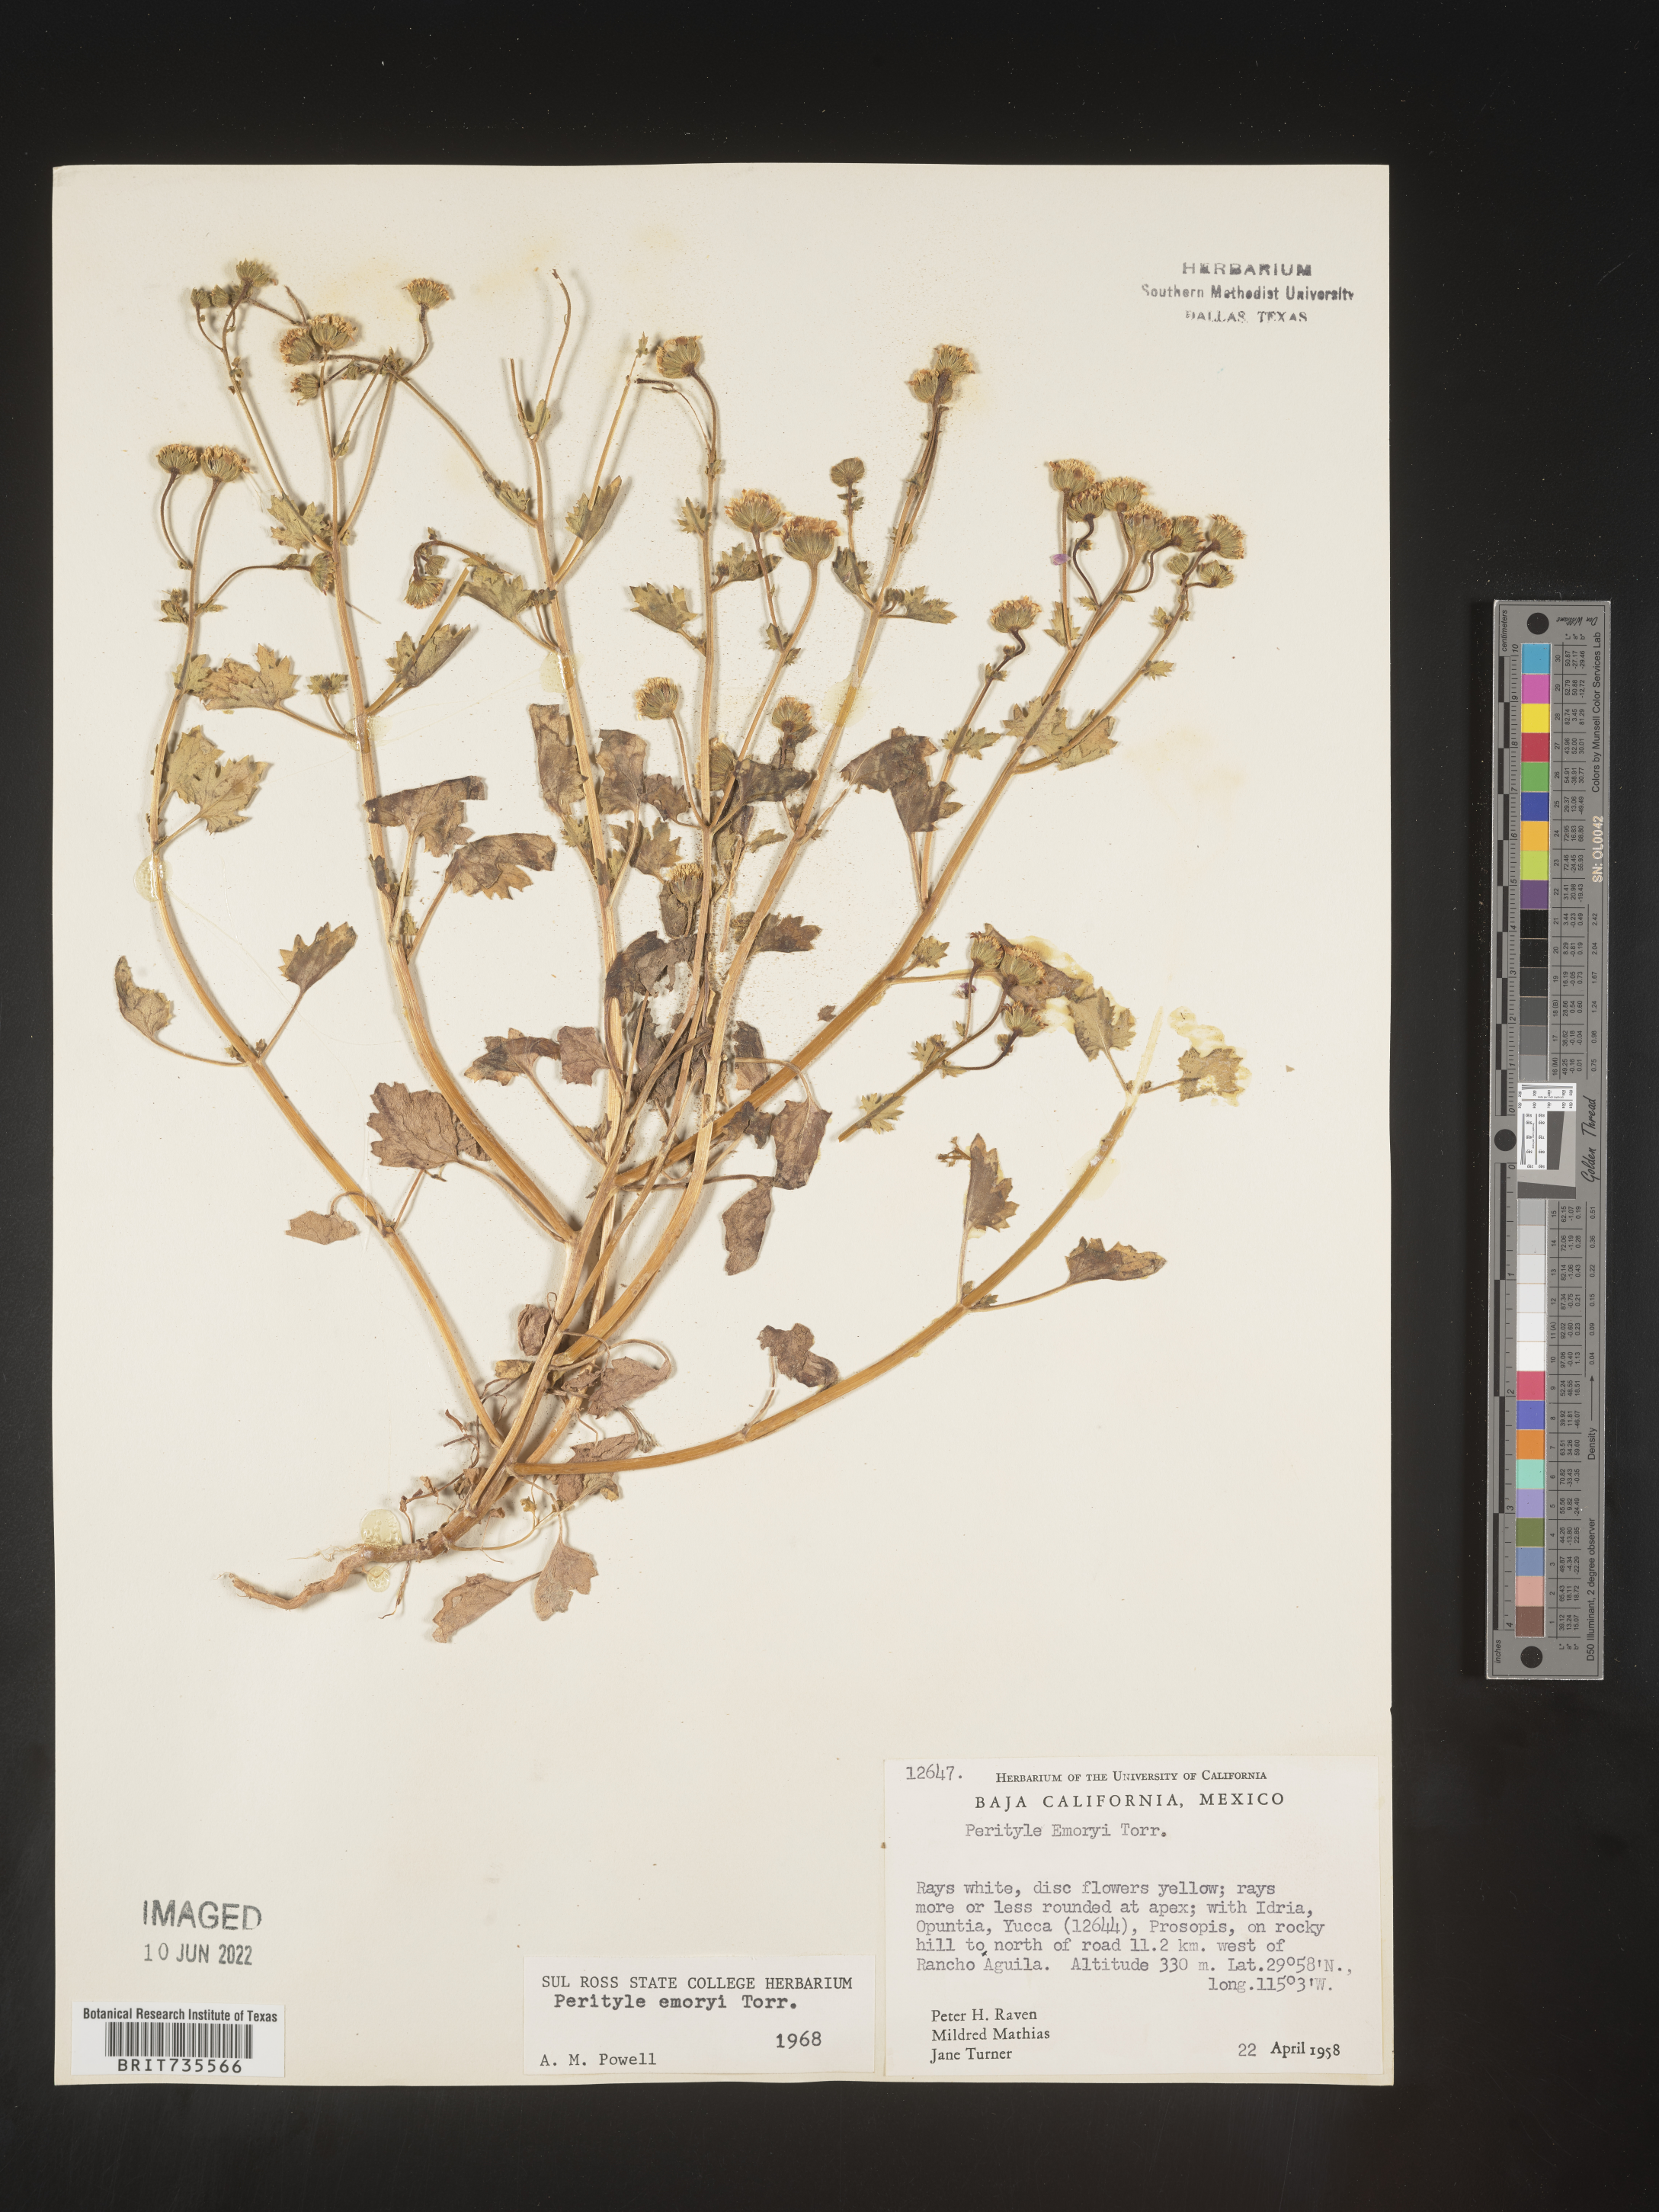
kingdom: Plantae
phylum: Tracheophyta
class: Magnoliopsida
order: Asterales
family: Asteraceae
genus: Perityle
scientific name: Perityle
